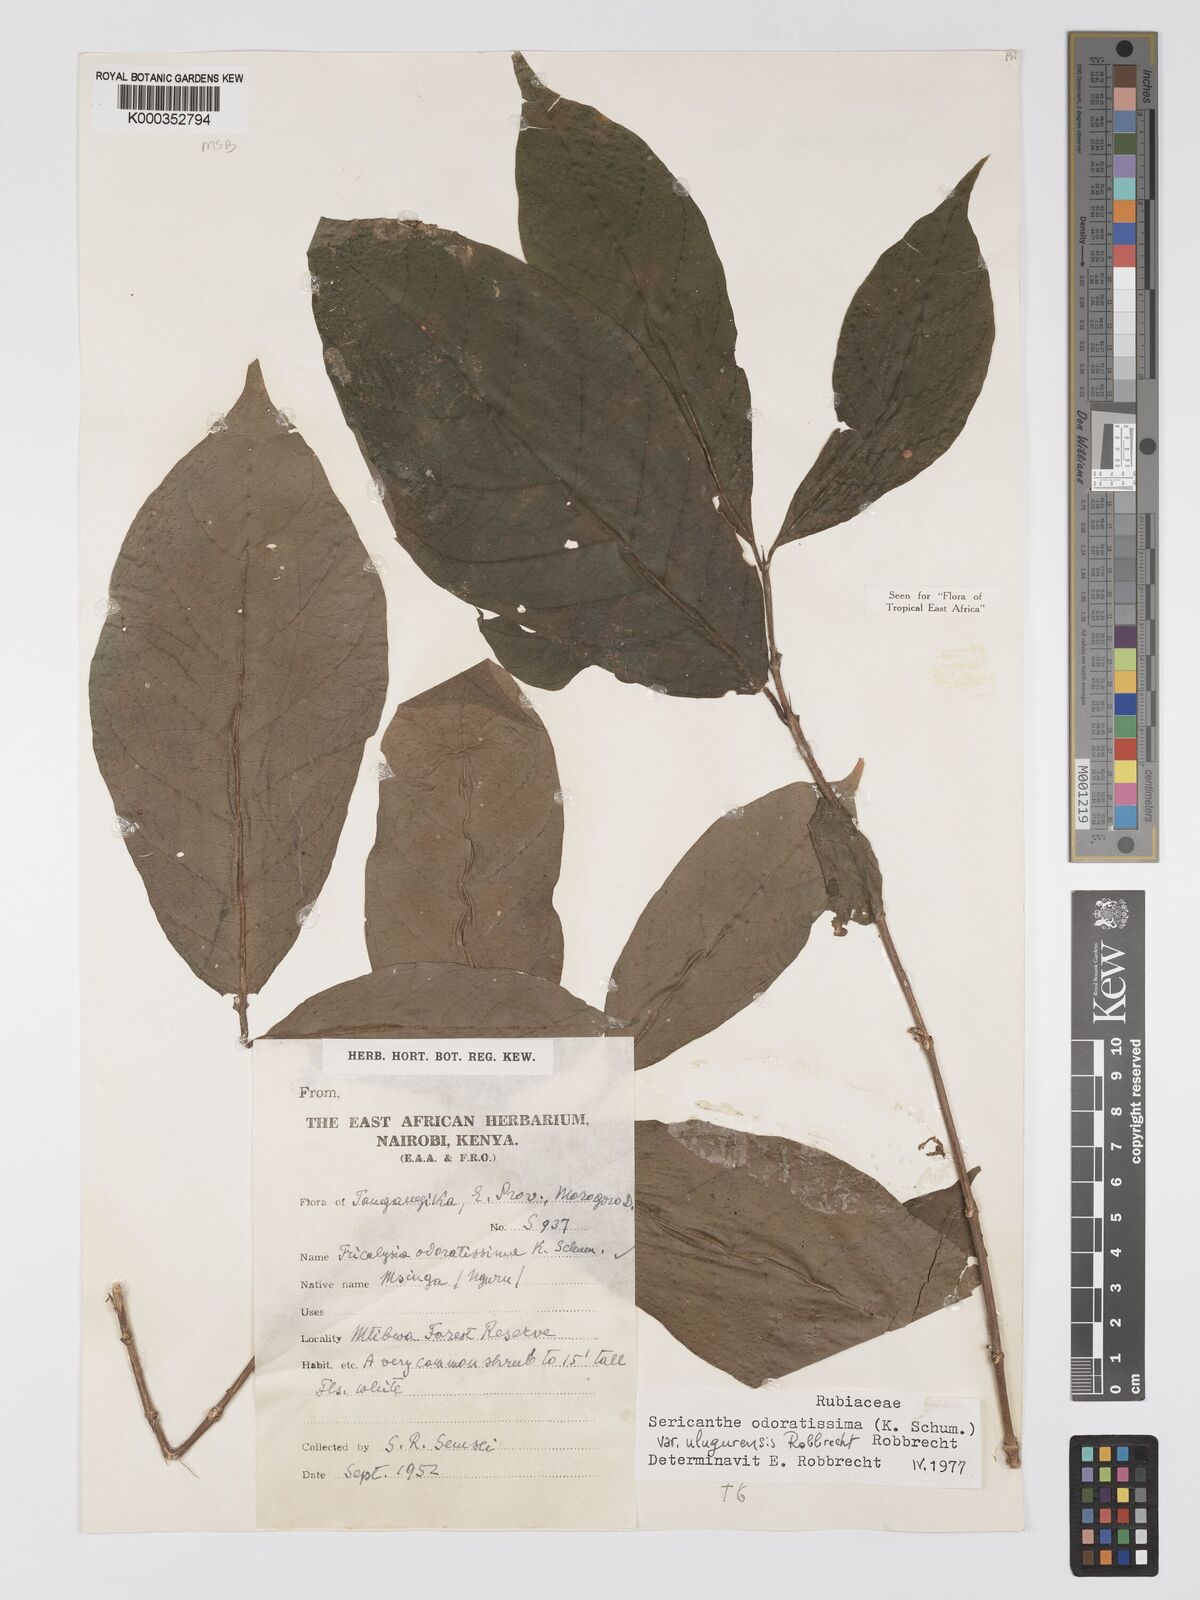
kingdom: Plantae
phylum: Tracheophyta
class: Magnoliopsida
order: Gentianales
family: Rubiaceae
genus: Sericanthe
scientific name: Sericanthe odoratissima
